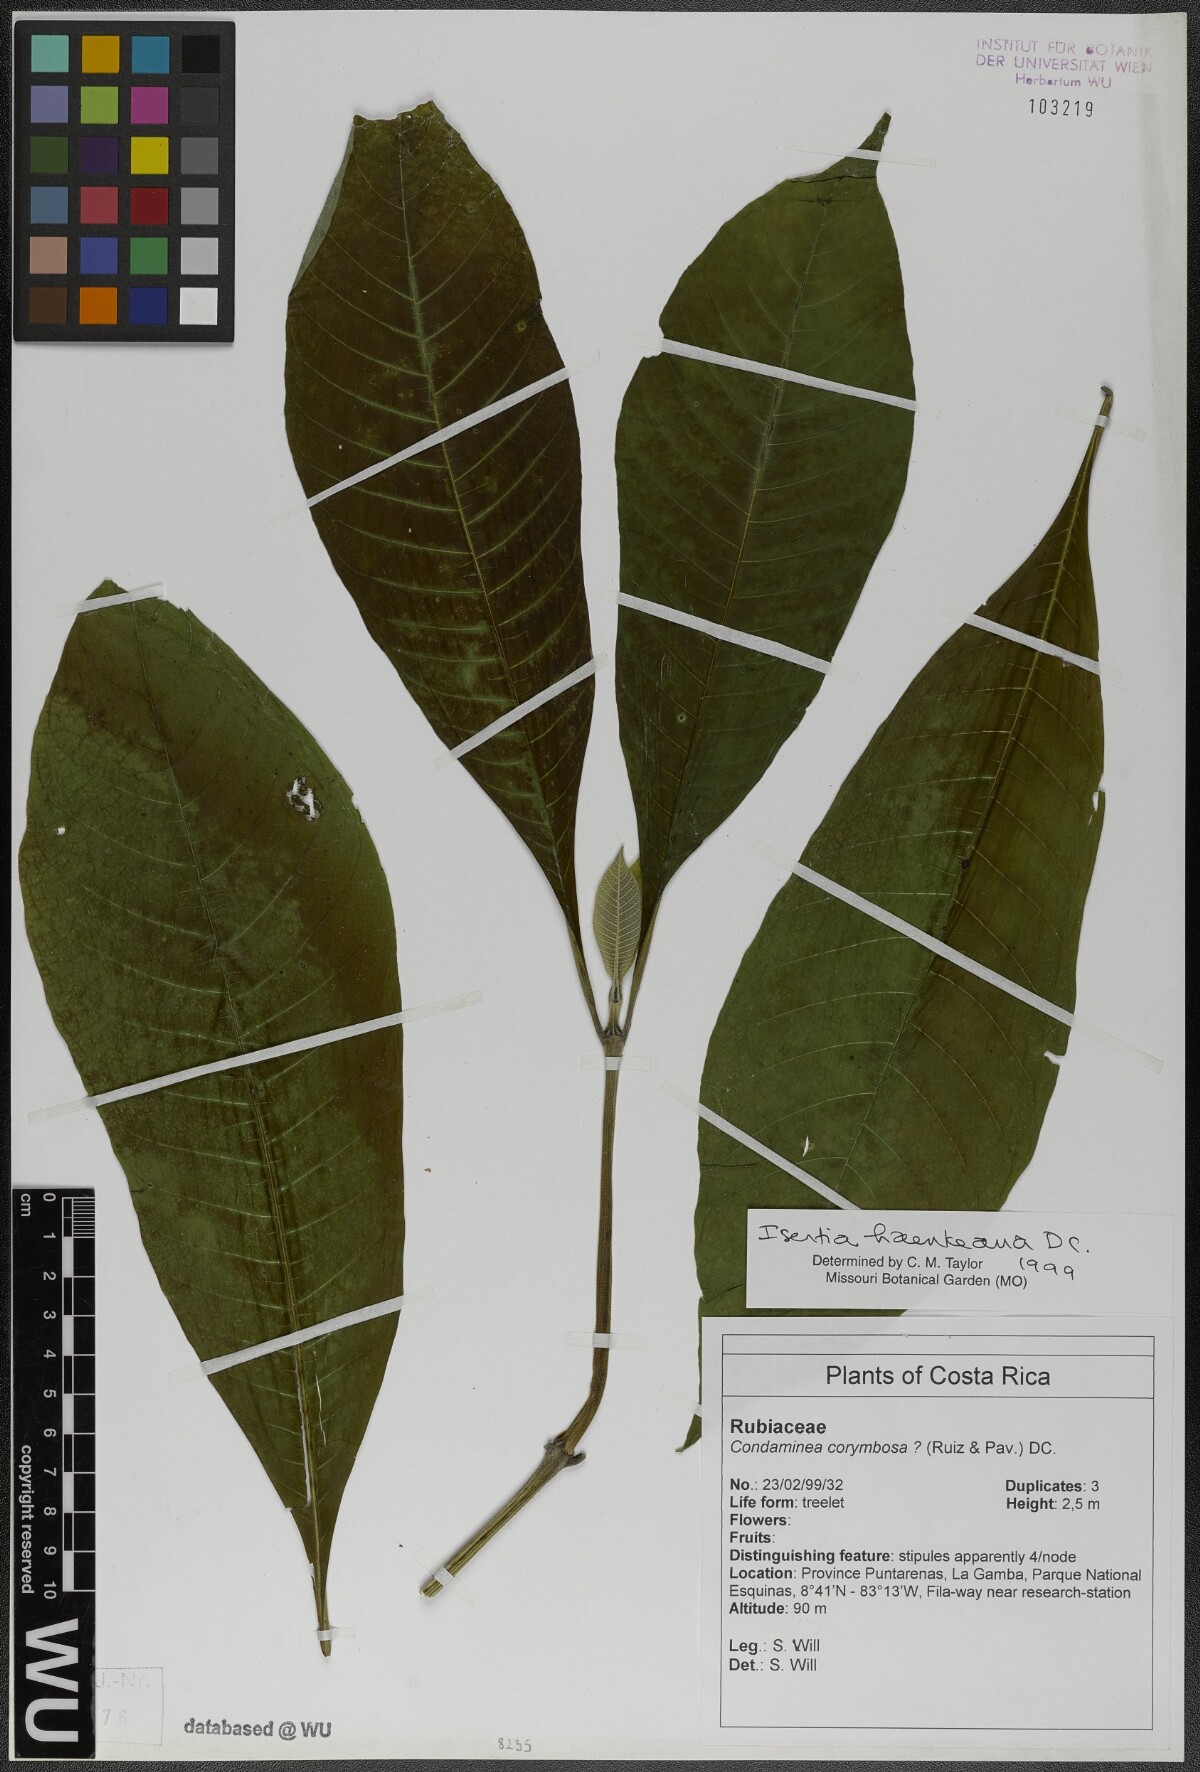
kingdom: Plantae
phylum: Tracheophyta
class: Magnoliopsida
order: Gentianales
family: Rubiaceae
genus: Isertia
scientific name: Isertia haenkeana
